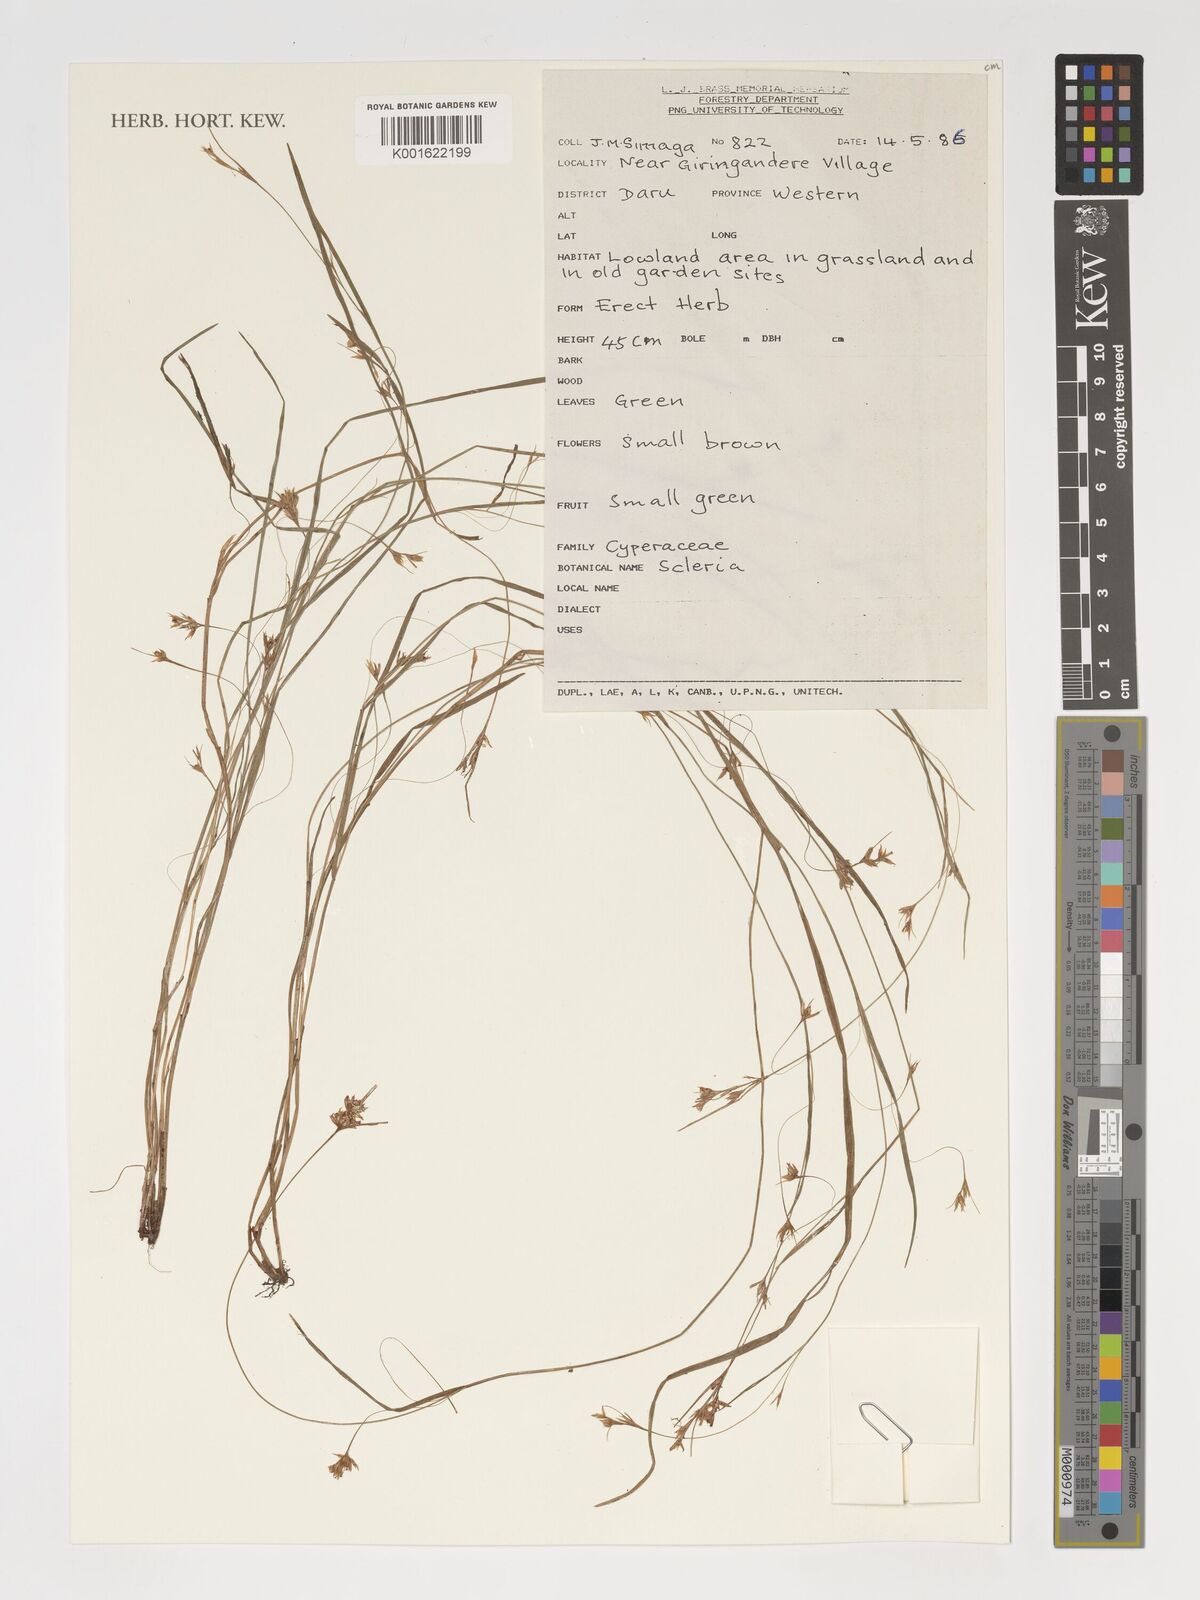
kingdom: Plantae
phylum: Tracheophyta
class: Liliopsida
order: Poales
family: Cyperaceae
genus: Scleria
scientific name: Scleria
